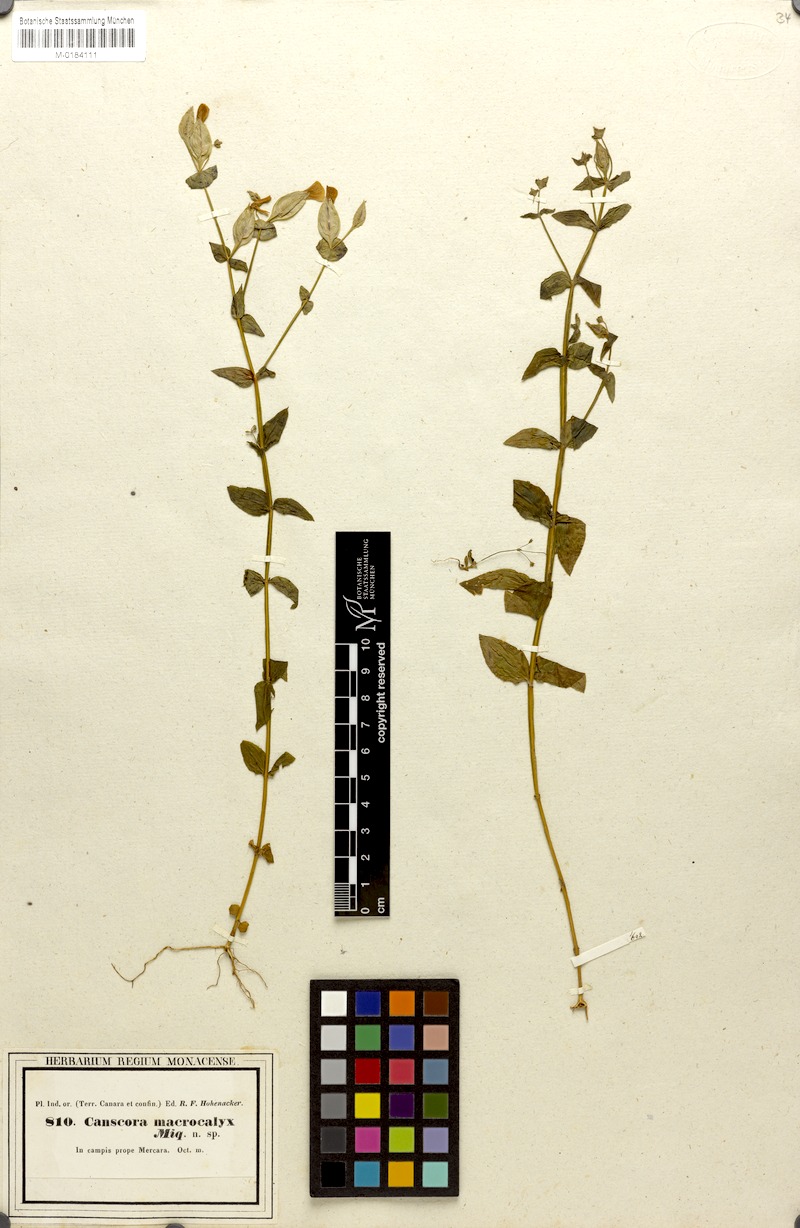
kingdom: Plantae
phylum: Tracheophyta
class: Magnoliopsida
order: Gentianales
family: Gentianaceae
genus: Canscora
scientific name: Canscora perfoliata
